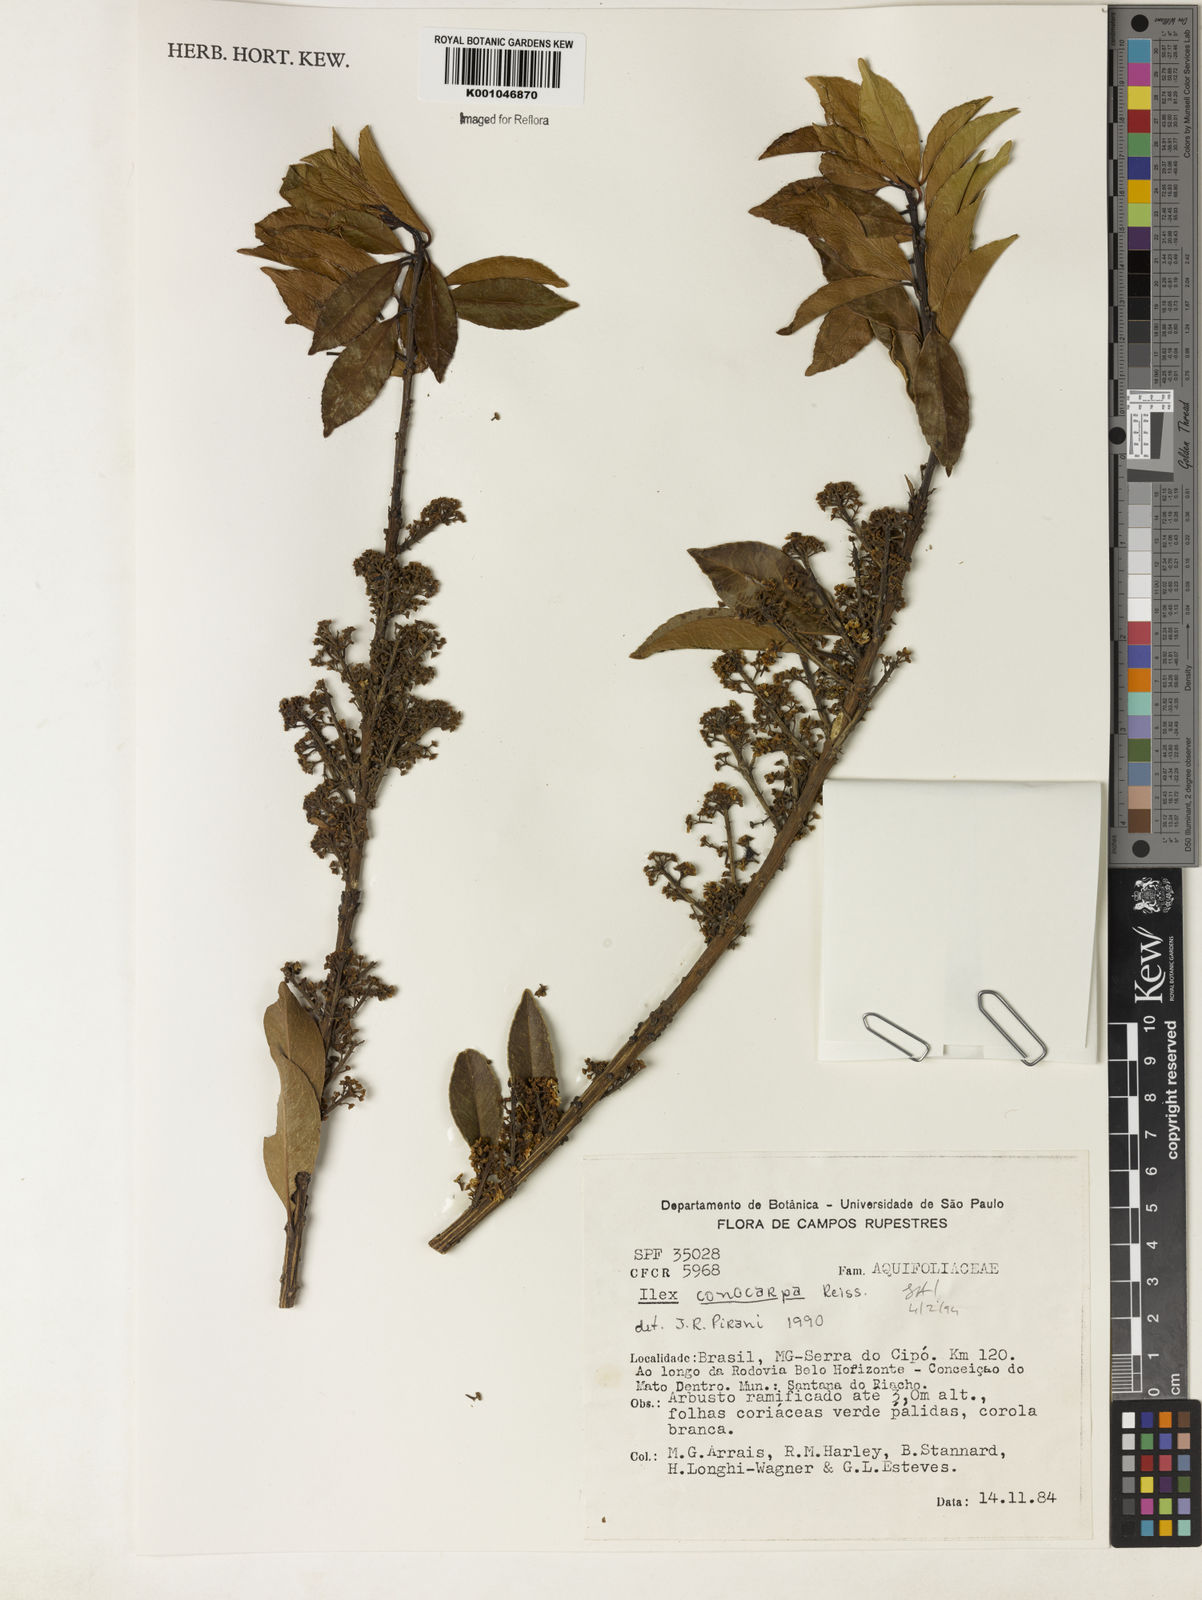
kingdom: Plantae
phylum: Tracheophyta
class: Magnoliopsida
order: Aquifoliales
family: Aquifoliaceae
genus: Ilex
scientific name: Ilex conocarpa
